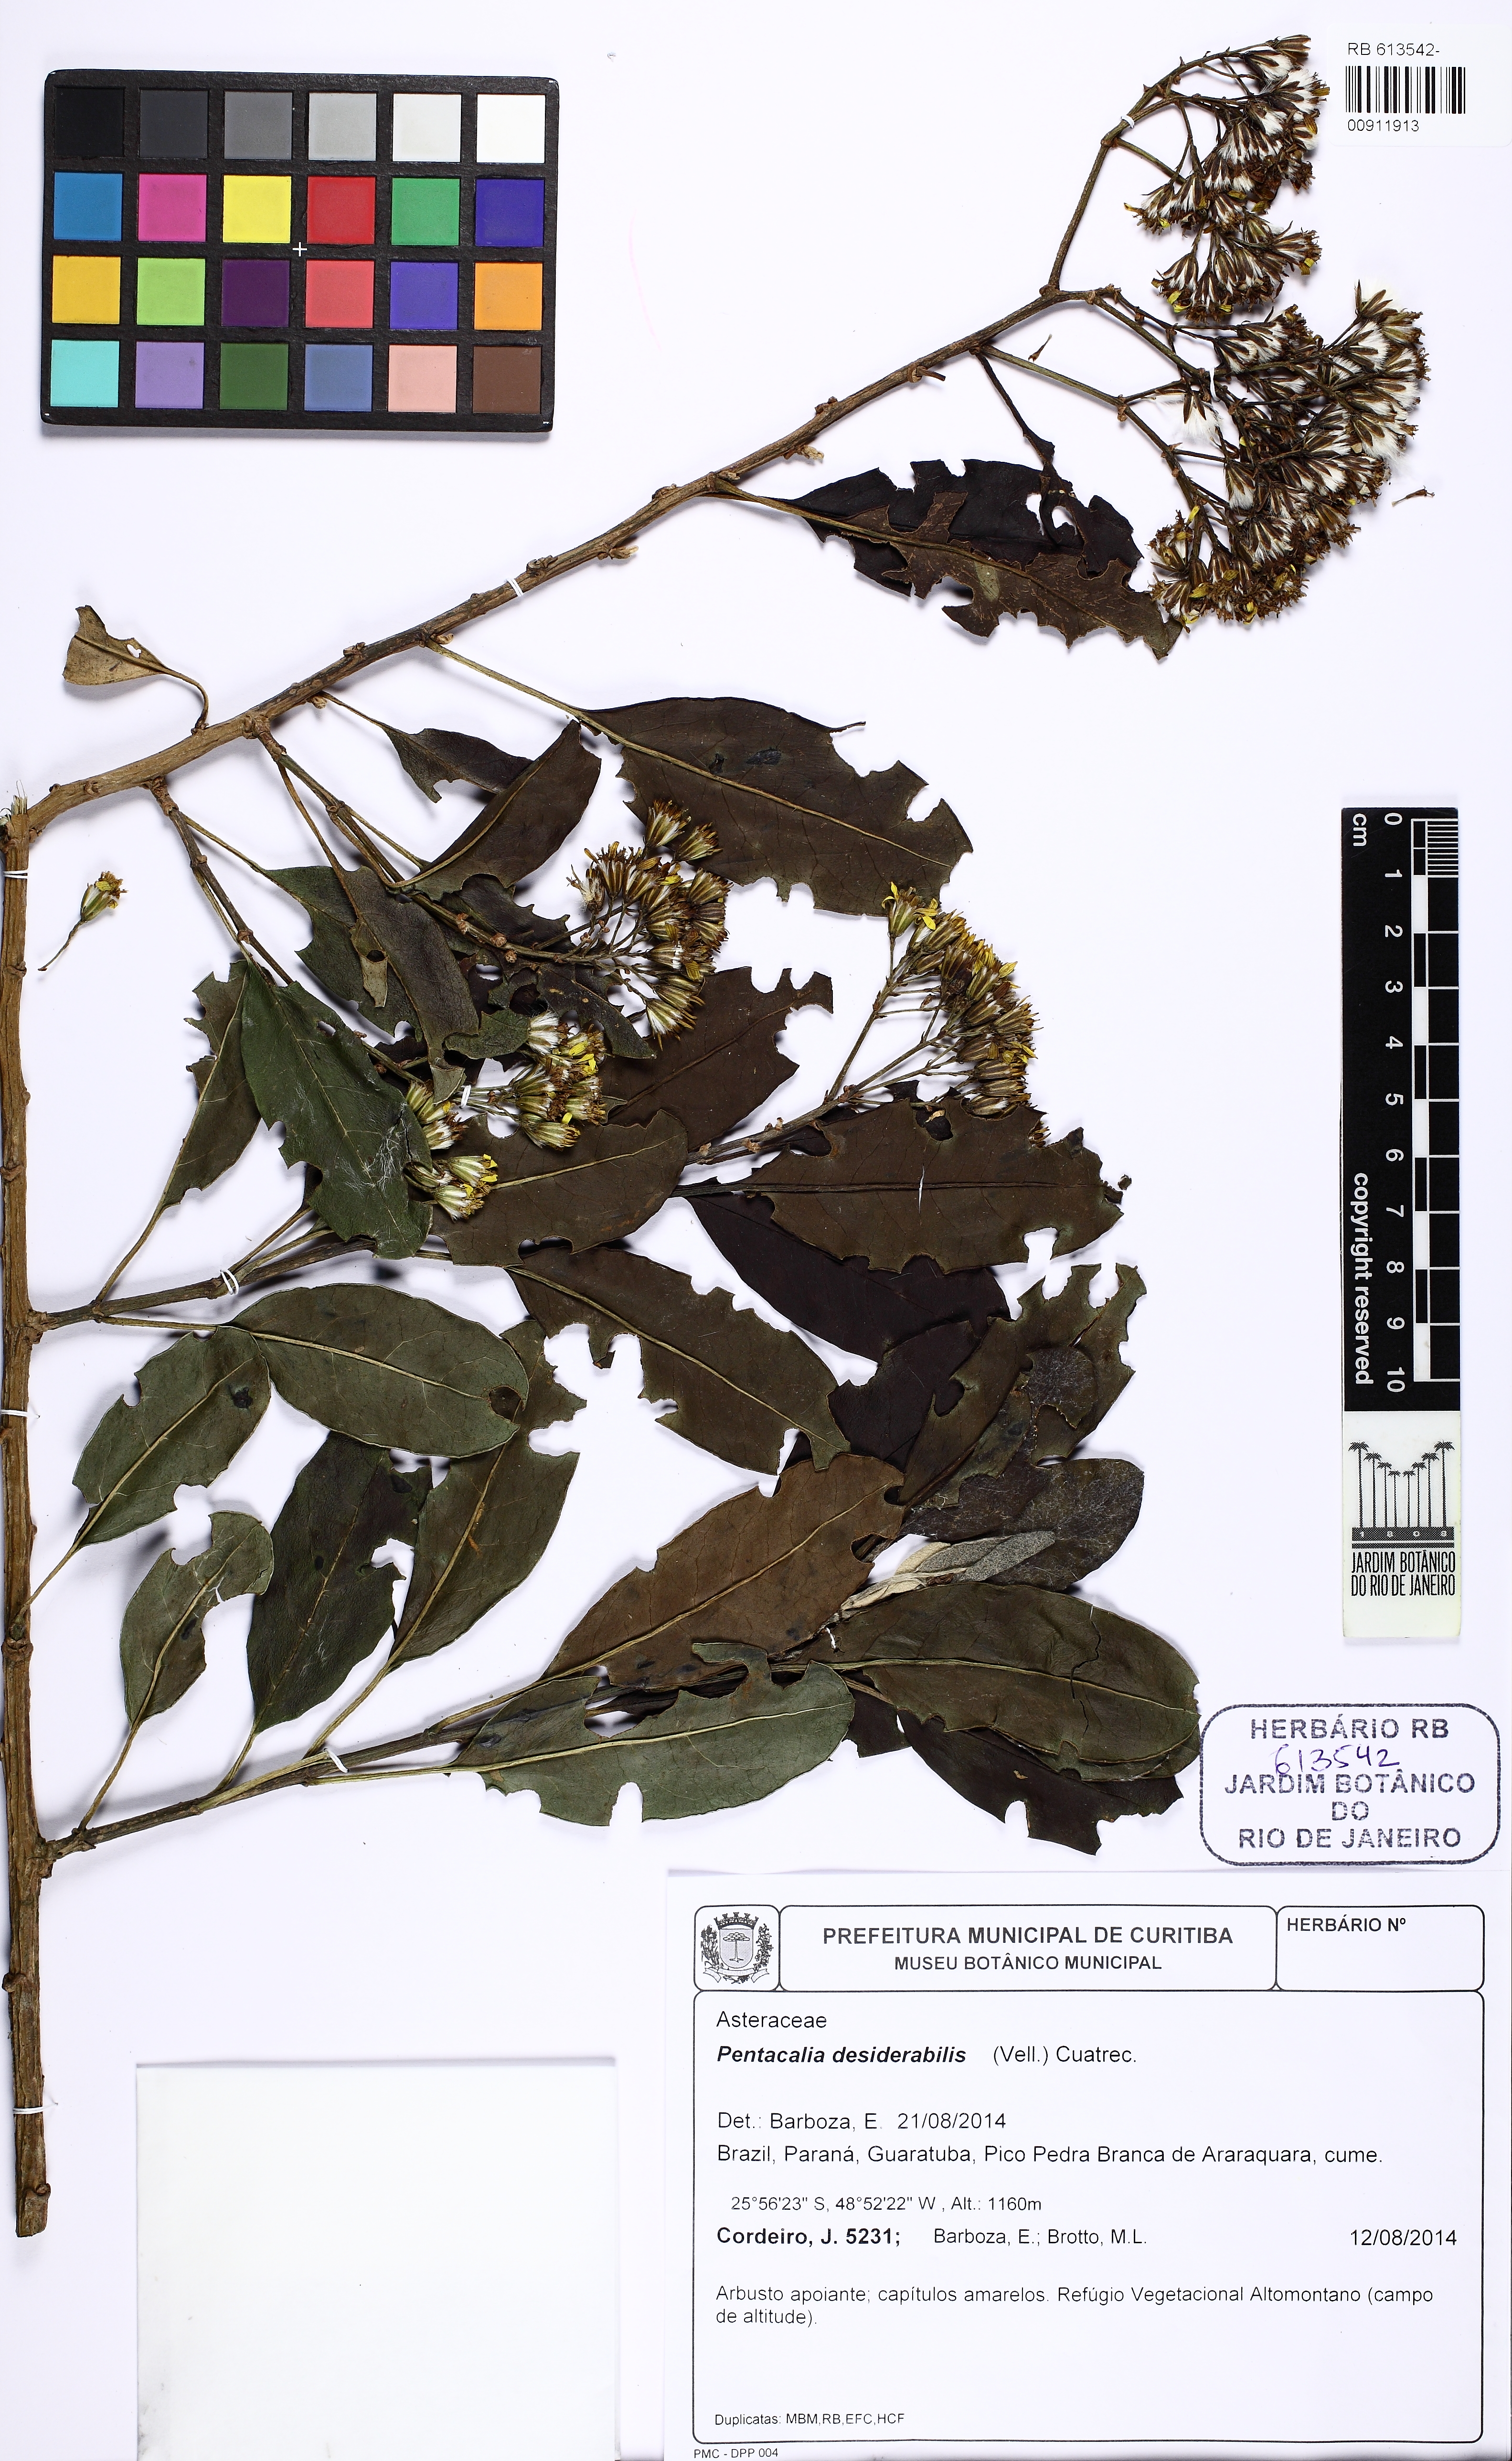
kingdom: Plantae
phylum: Tracheophyta
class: Magnoliopsida
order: Asterales
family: Asteraceae
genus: Pentacalia
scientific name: Pentacalia desiderabilis
